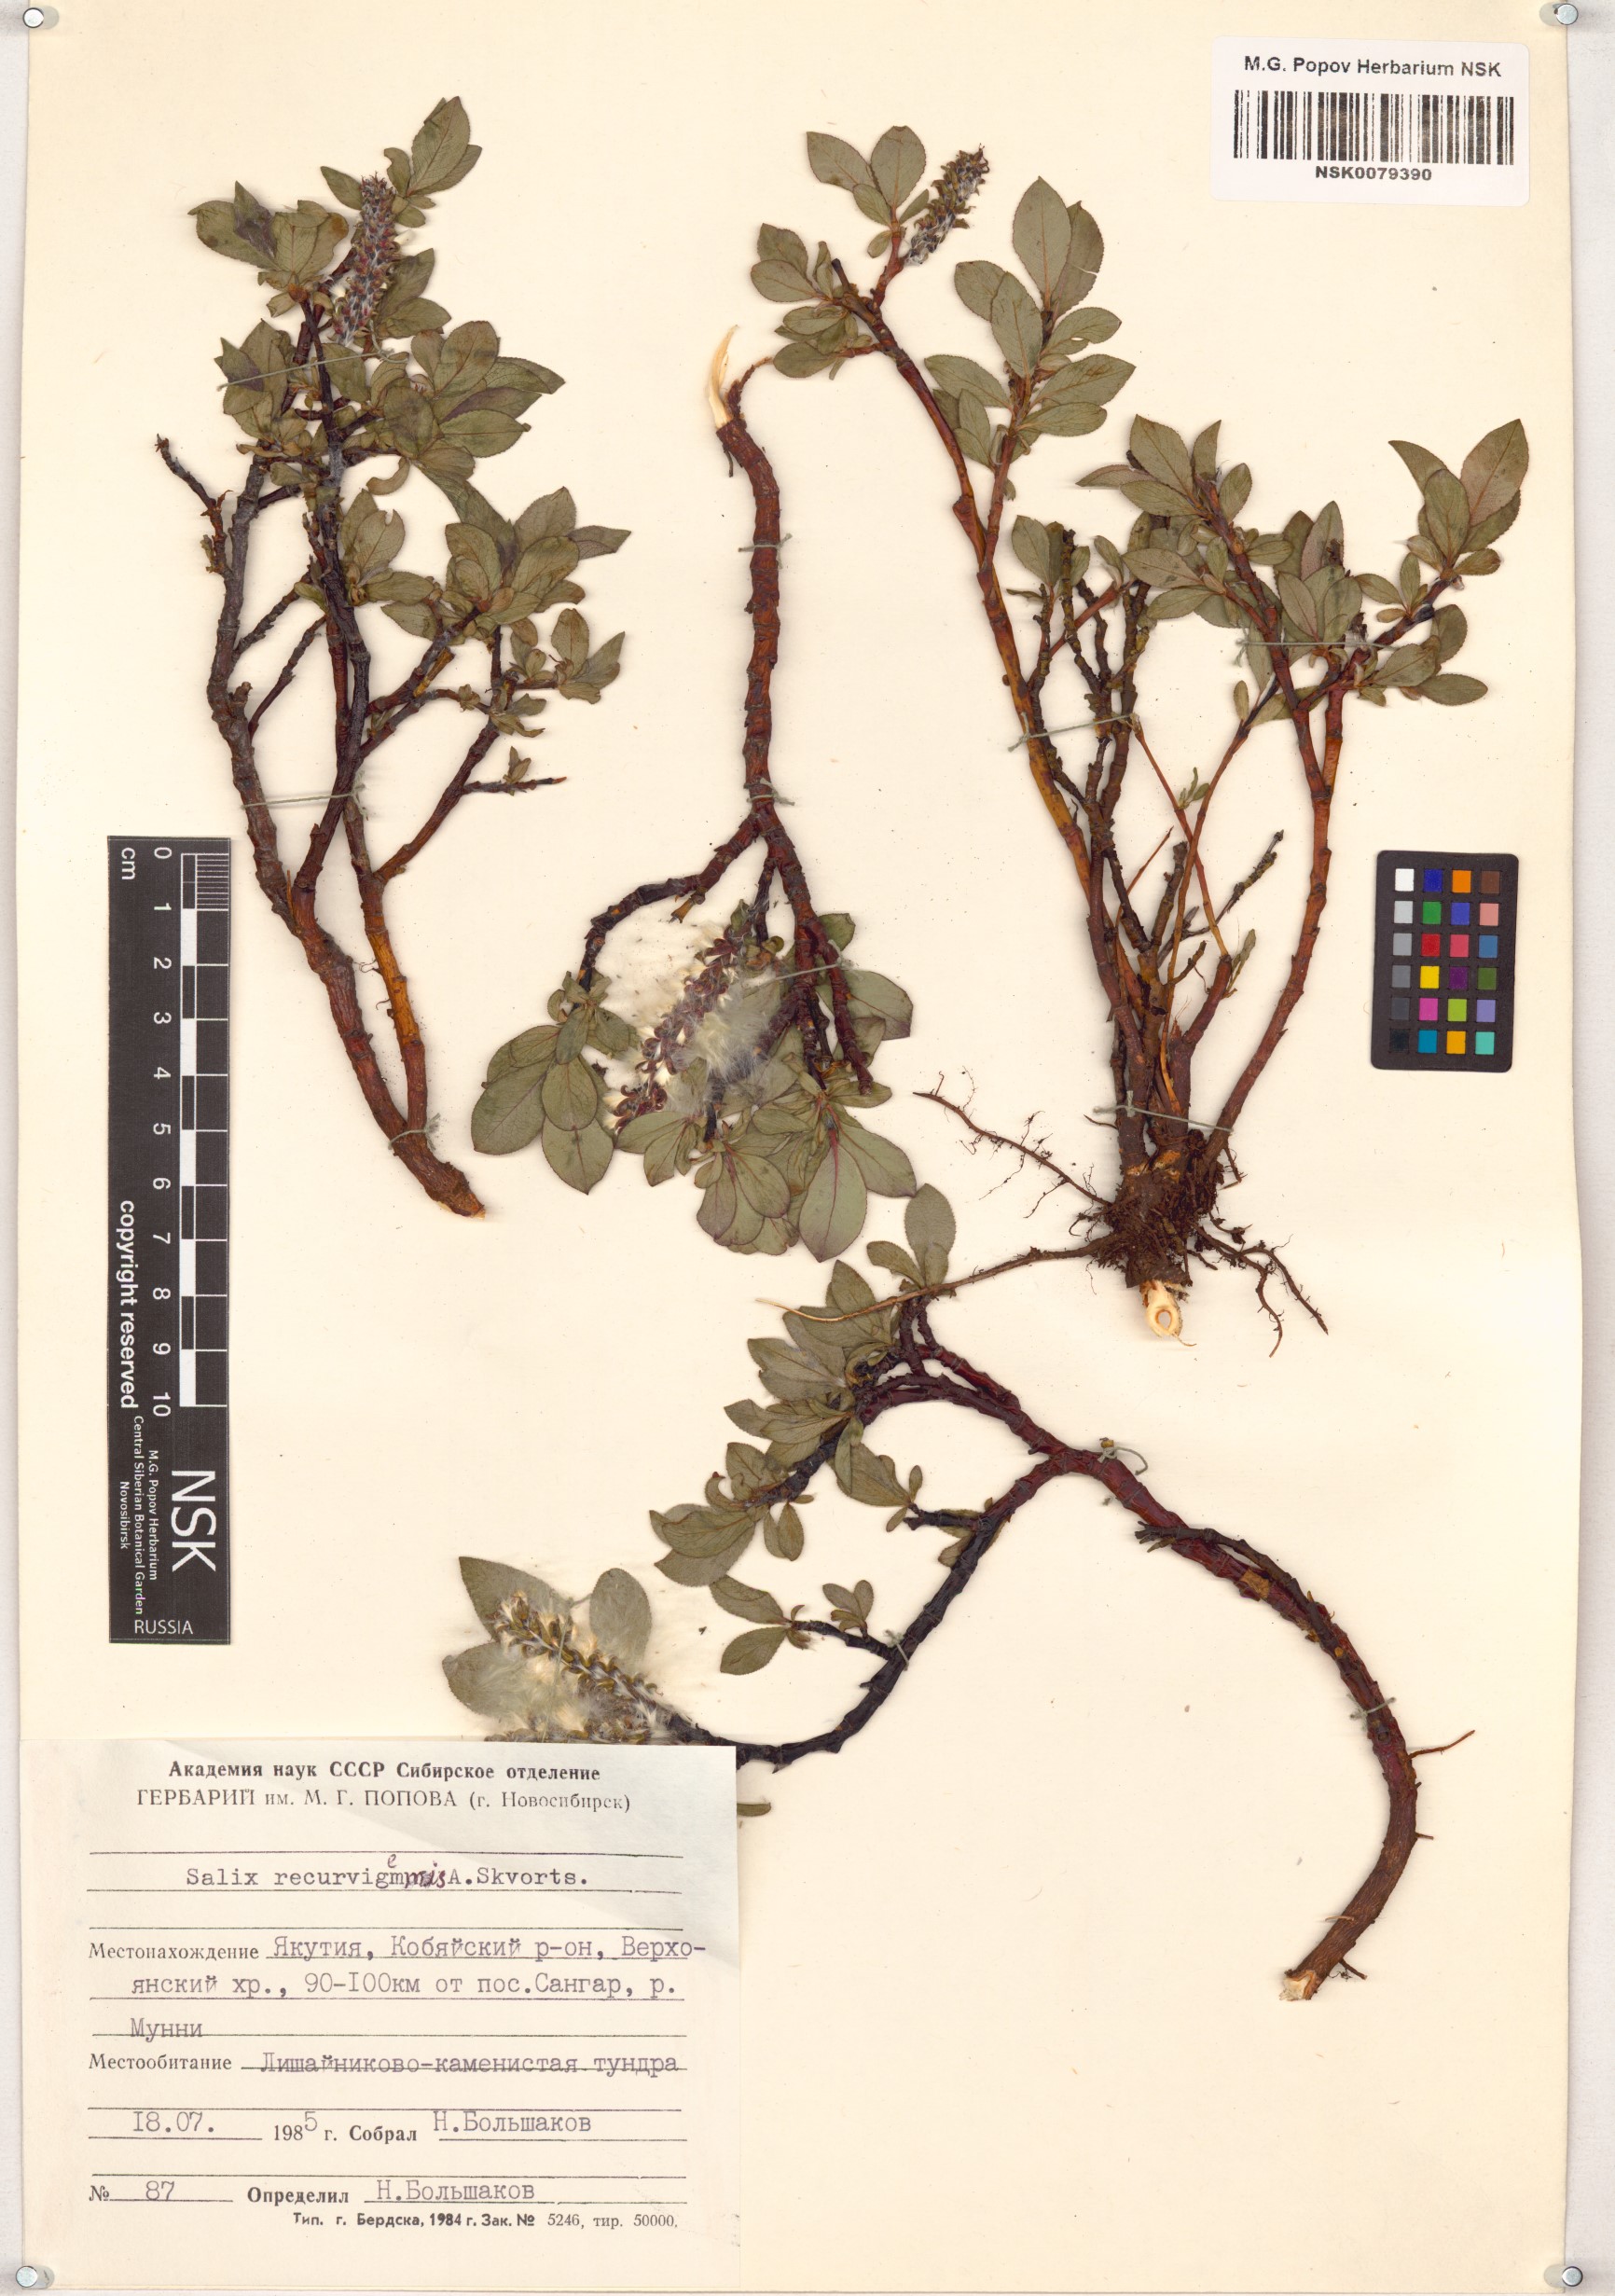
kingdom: Plantae
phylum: Tracheophyta
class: Magnoliopsida
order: Malpighiales
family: Salicaceae
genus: Salix
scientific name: Salix recurvigemmata
